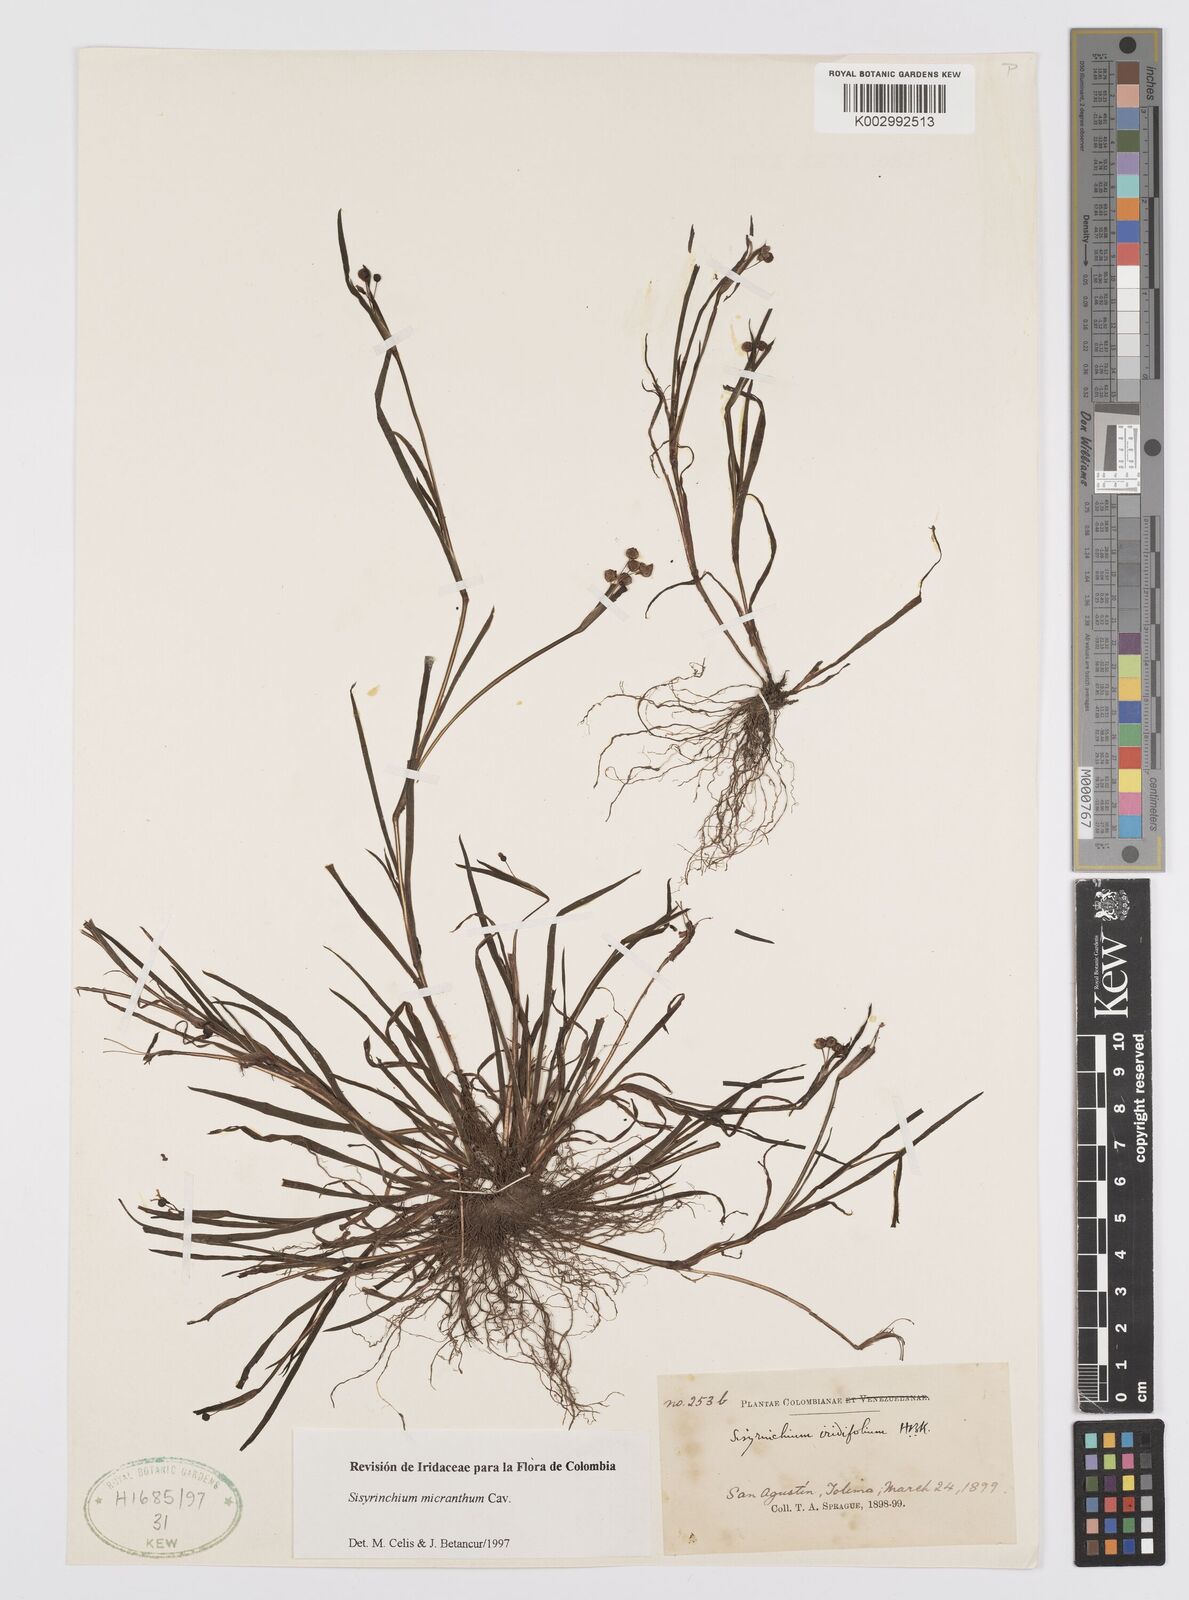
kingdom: Plantae
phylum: Tracheophyta
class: Liliopsida
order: Asparagales
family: Iridaceae
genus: Sisyrinchium
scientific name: Sisyrinchium micranthum
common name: Bermuda pigroot
